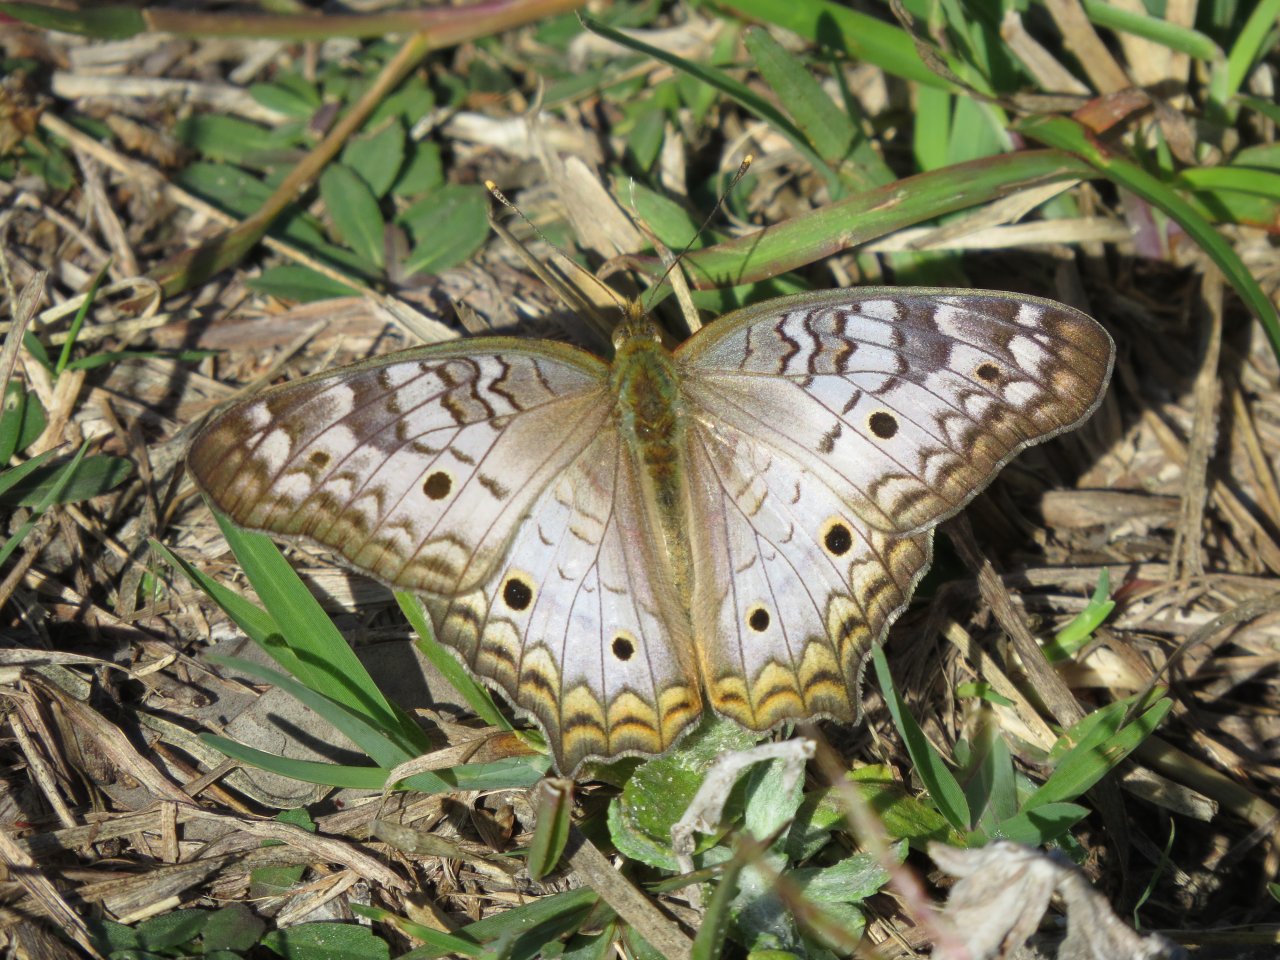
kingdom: Animalia
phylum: Arthropoda
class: Insecta
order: Lepidoptera
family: Nymphalidae
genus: Anartia
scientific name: Anartia jatrophae
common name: White Peacock
